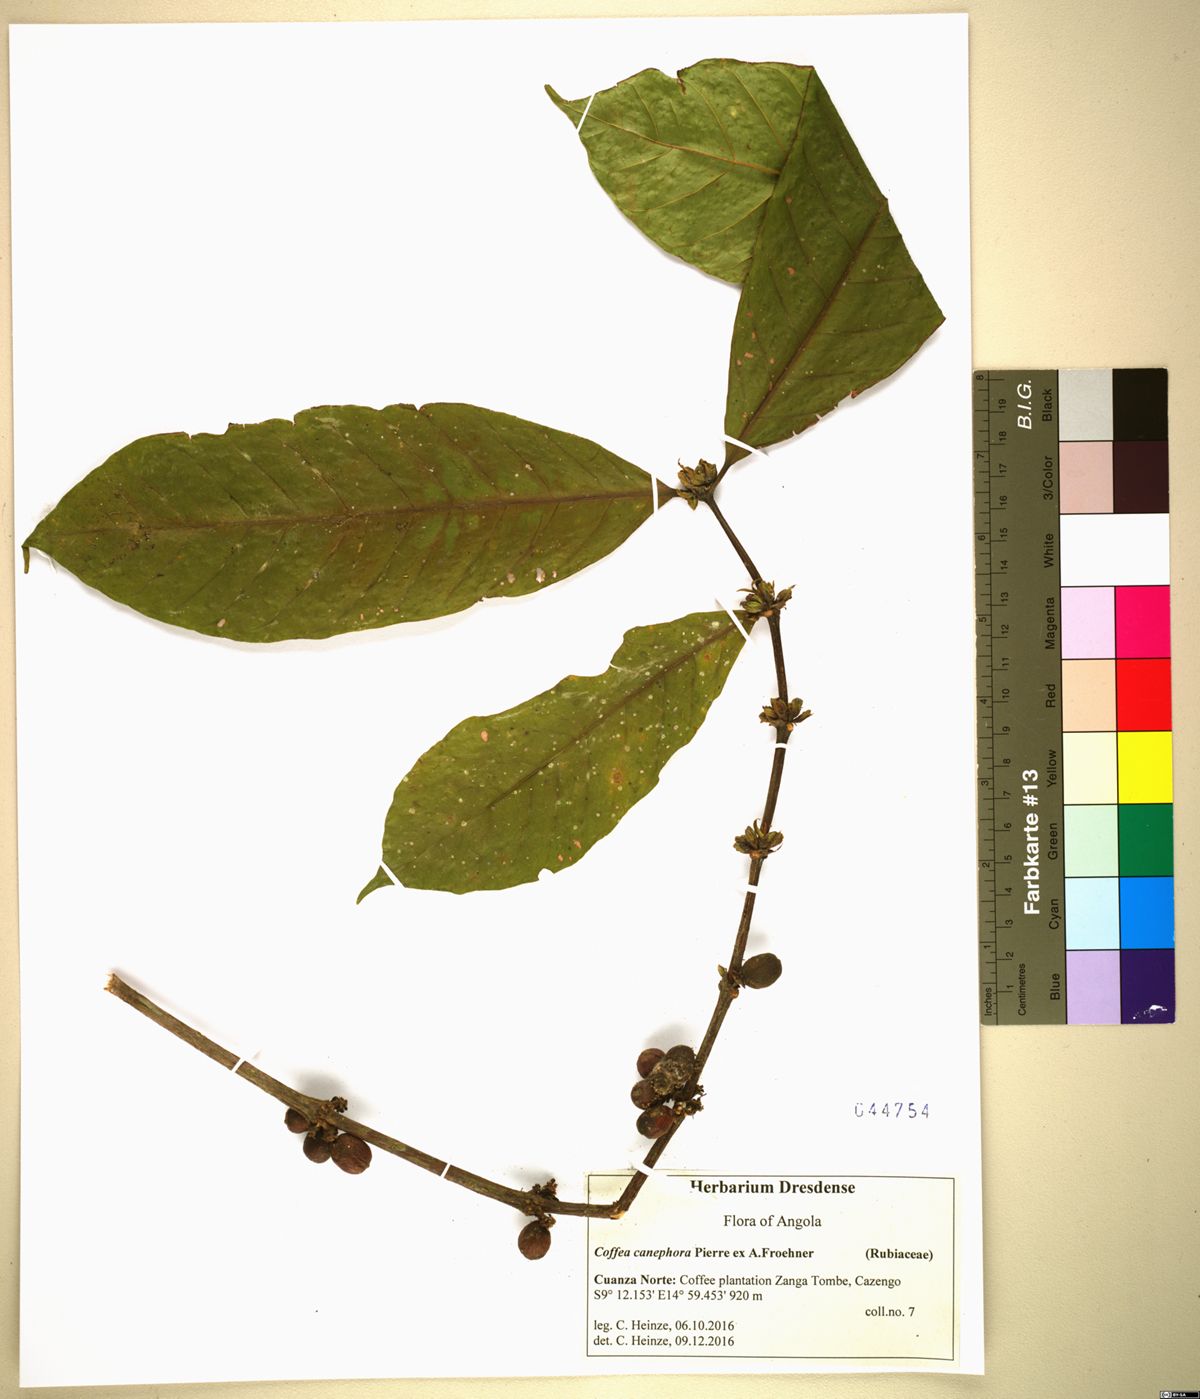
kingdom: Plantae
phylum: Tracheophyta
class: Magnoliopsida
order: Gentianales
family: Rubiaceae
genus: Coffea
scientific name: Coffea canephora
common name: Robusta coffee
